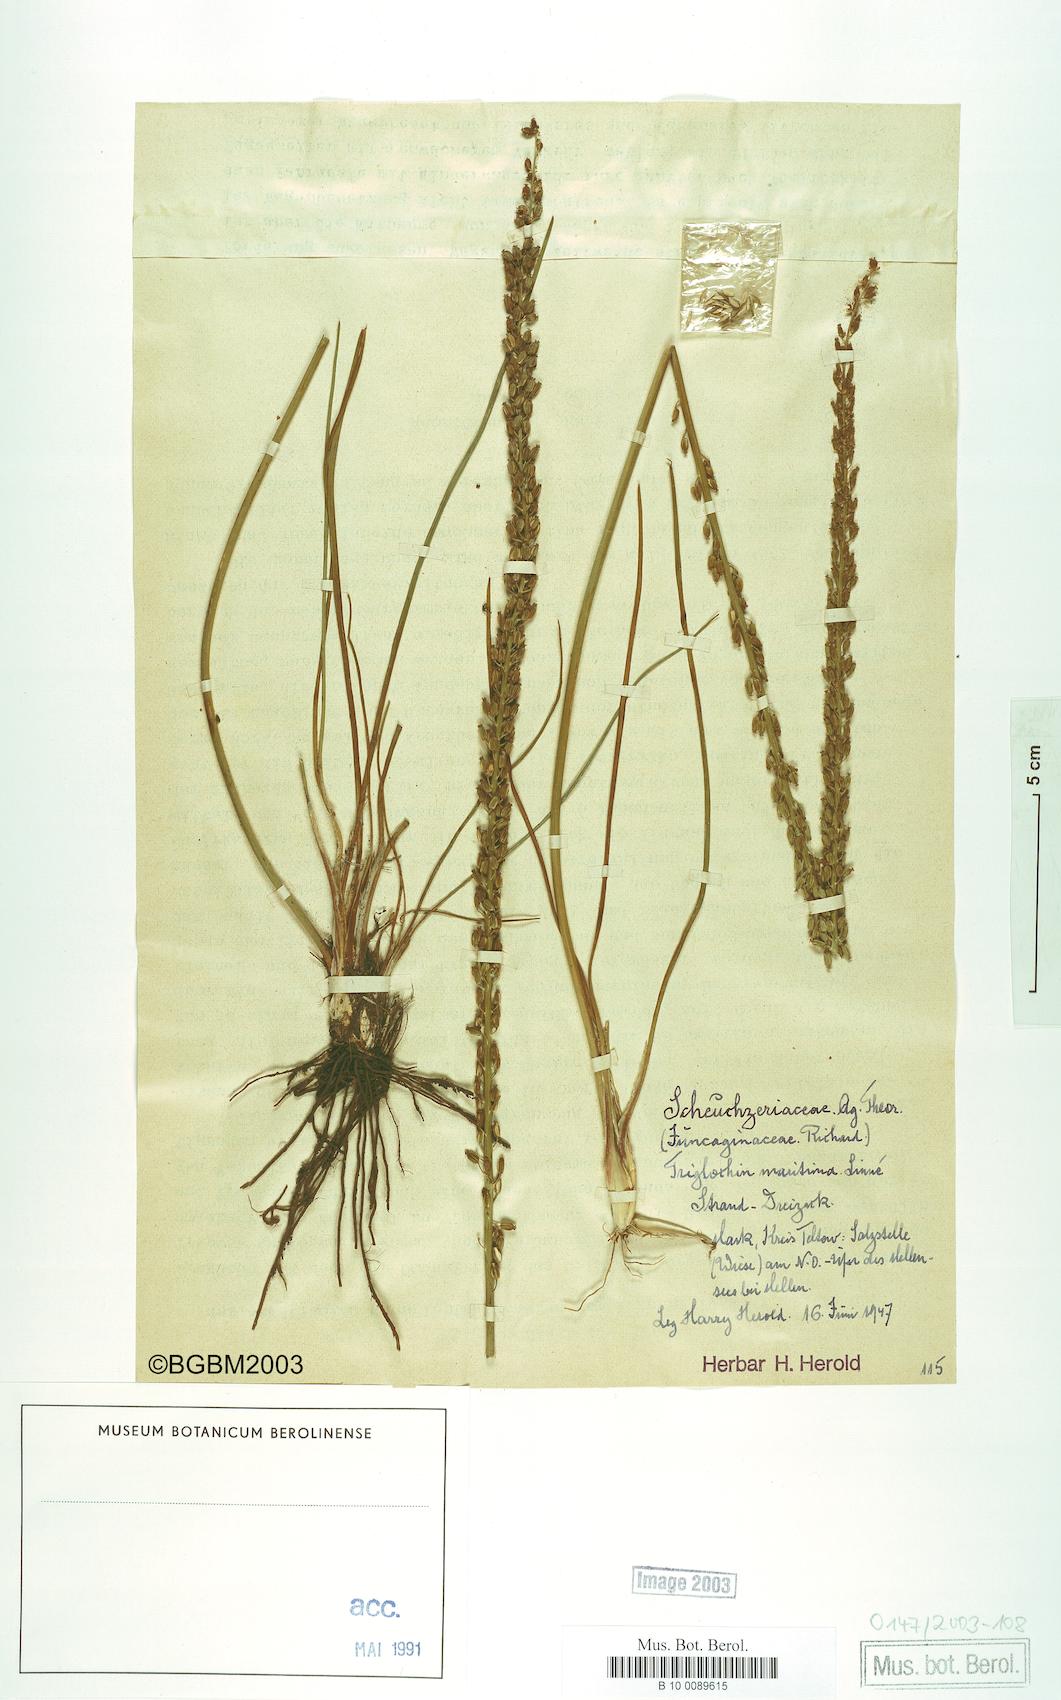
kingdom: Plantae
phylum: Tracheophyta
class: Liliopsida
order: Alismatales
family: Juncaginaceae
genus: Triglochin
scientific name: Triglochin maritima
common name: Sea arrowgrass
